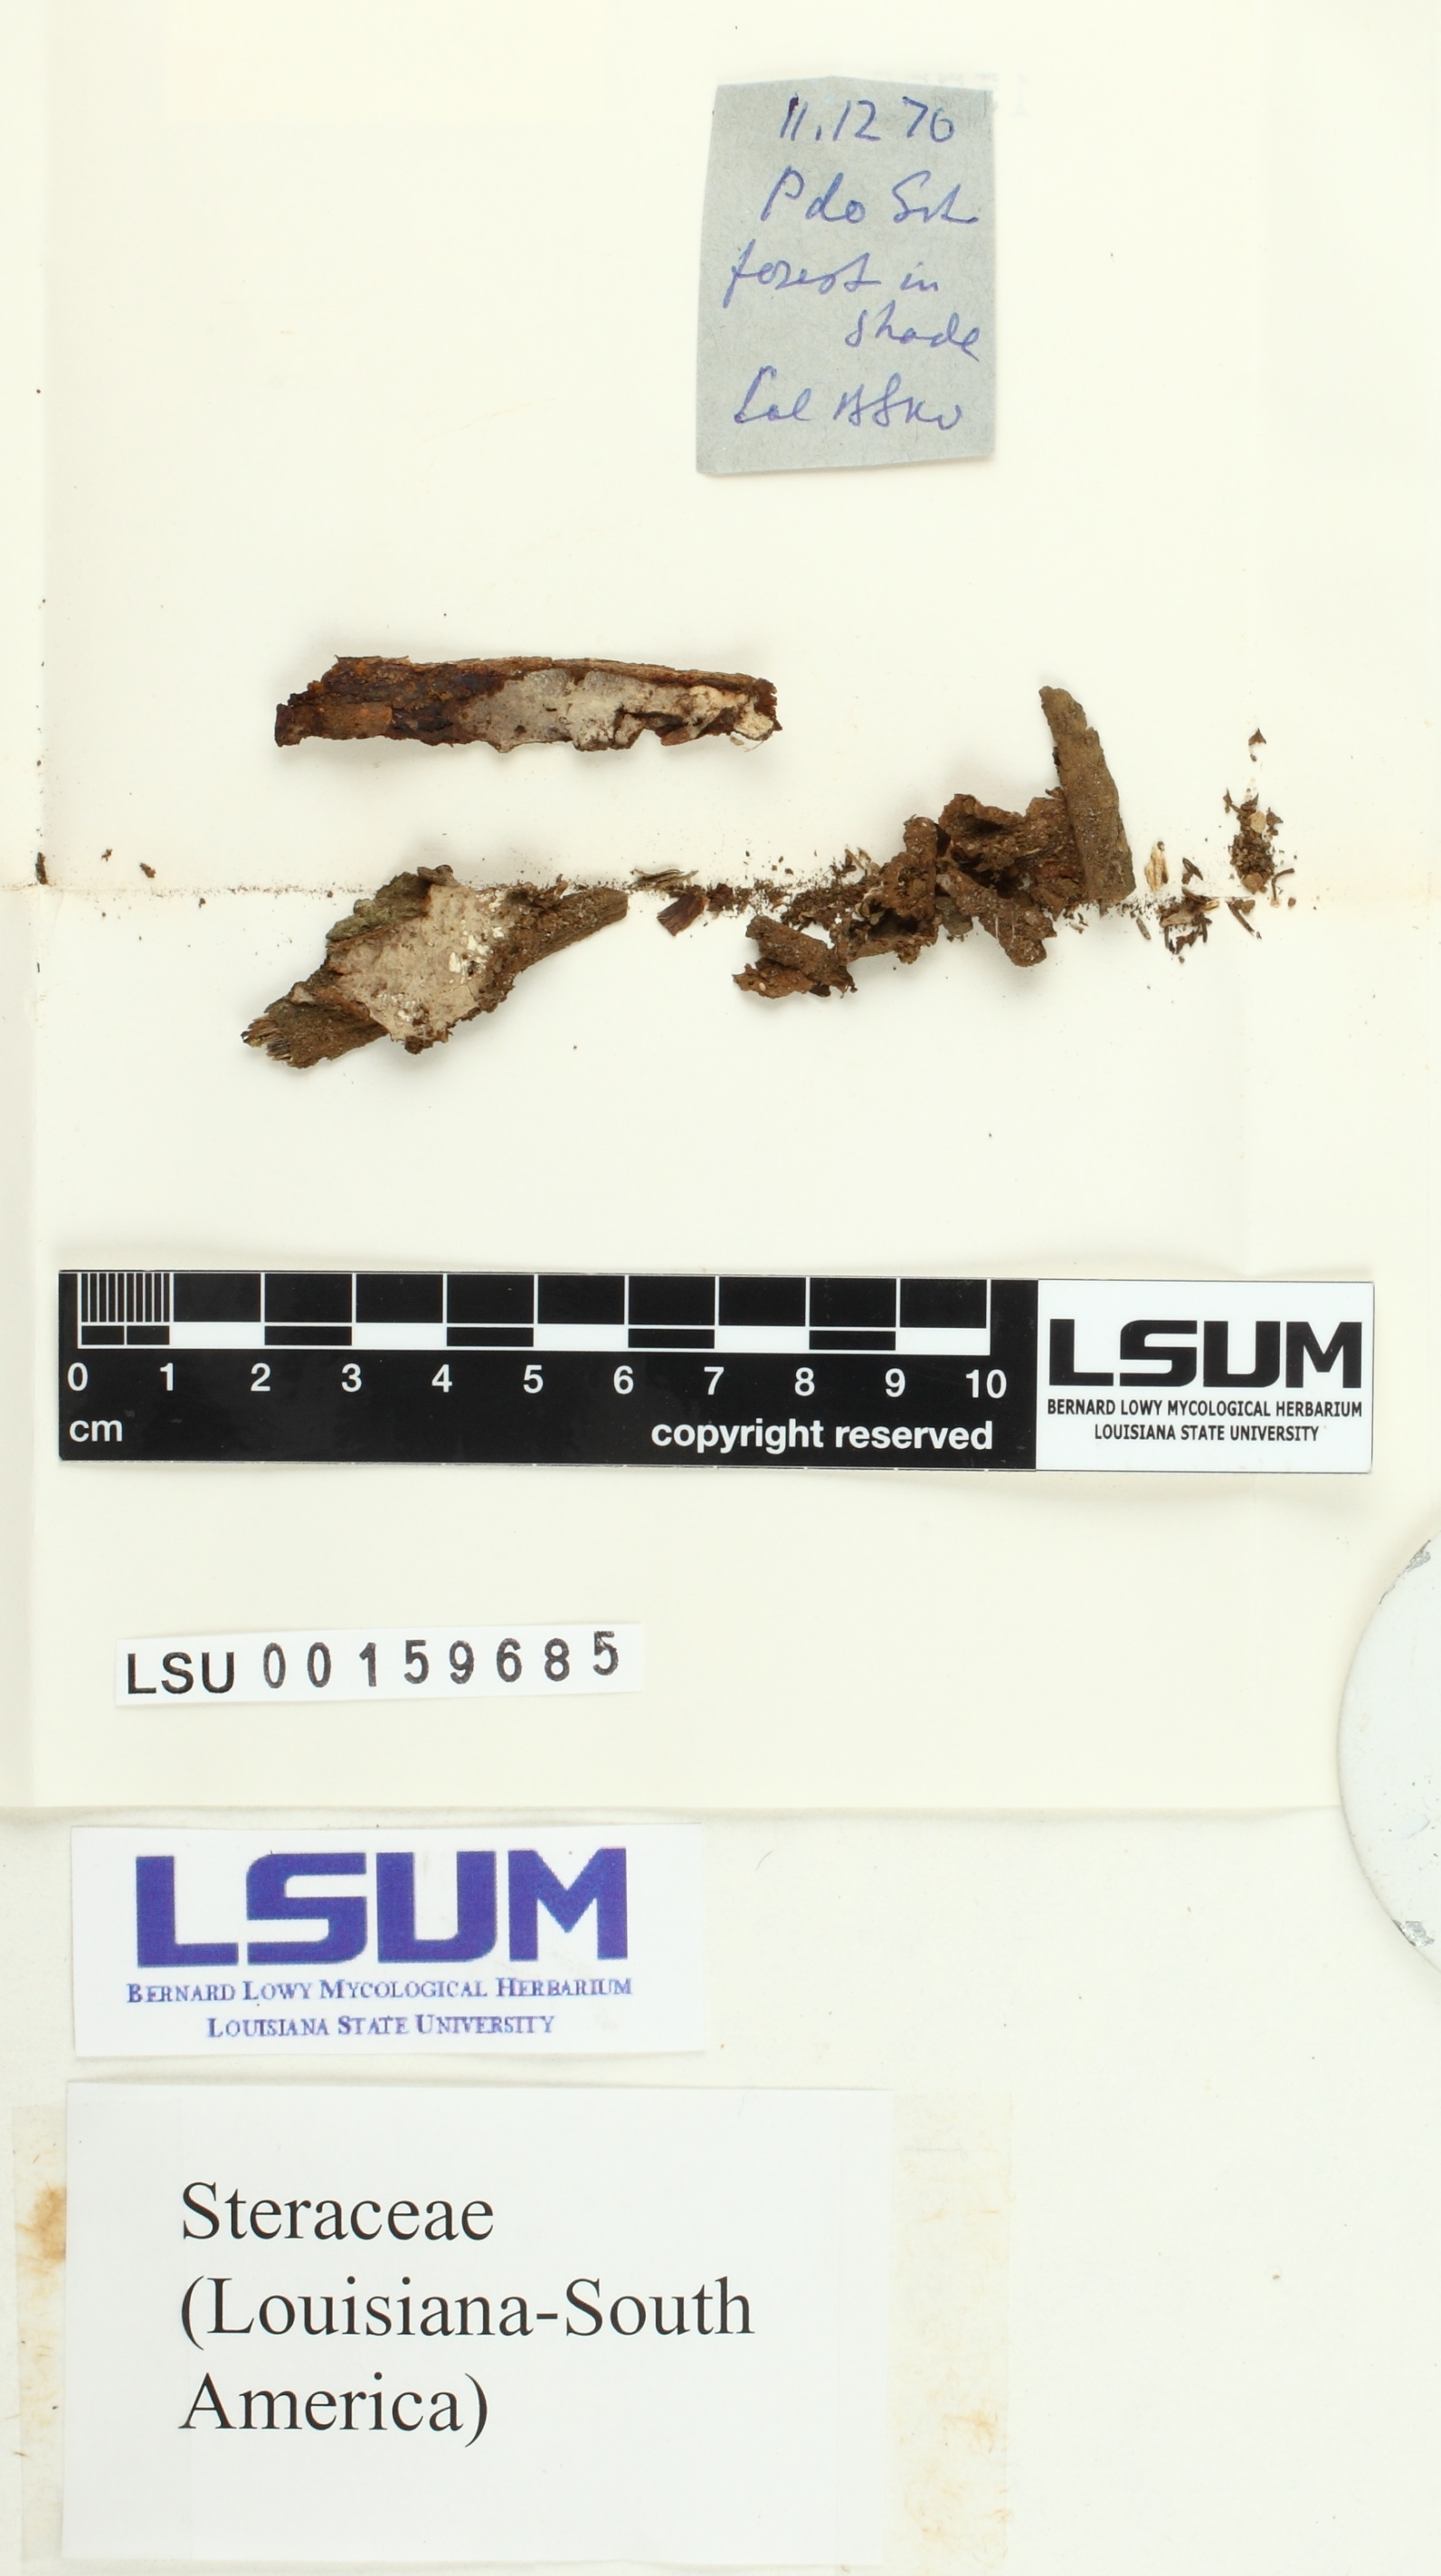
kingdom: Fungi
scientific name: Fungi
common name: Fungi
